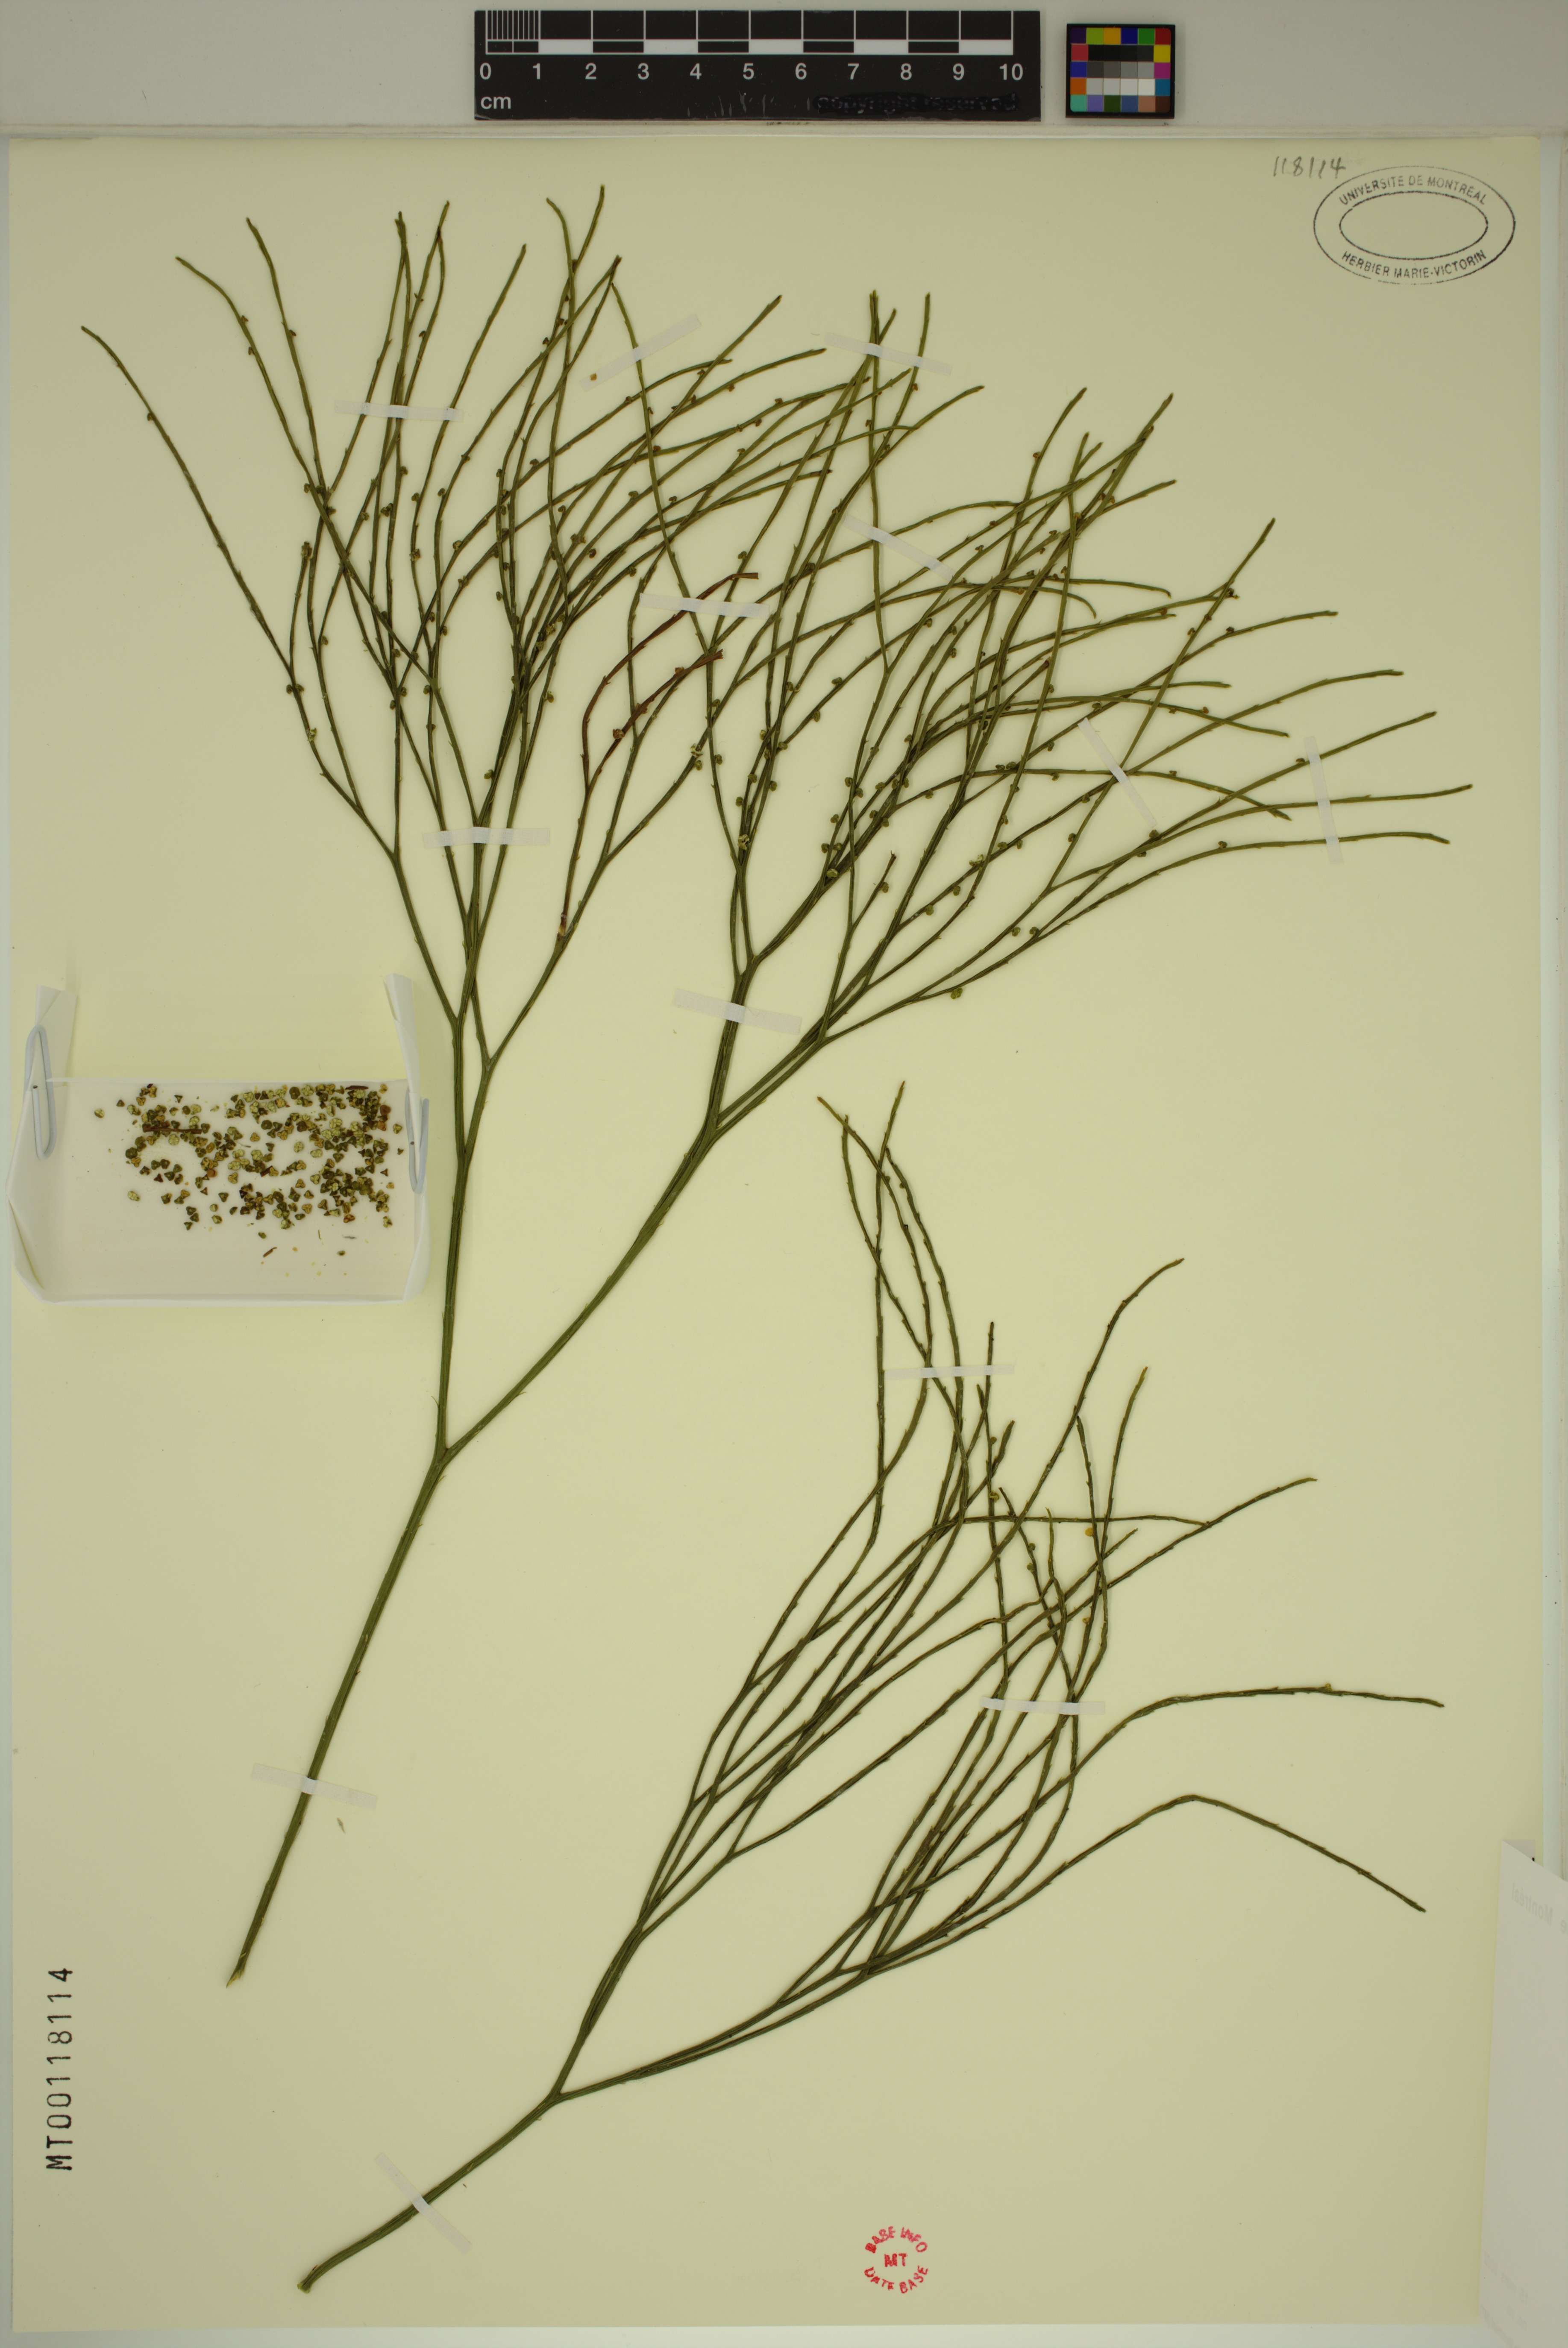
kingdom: Plantae
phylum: Tracheophyta
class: Polypodiopsida
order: Psilotales
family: Psilotaceae
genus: Psilotum
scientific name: Psilotum nudum
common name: Skeleton fork fern
